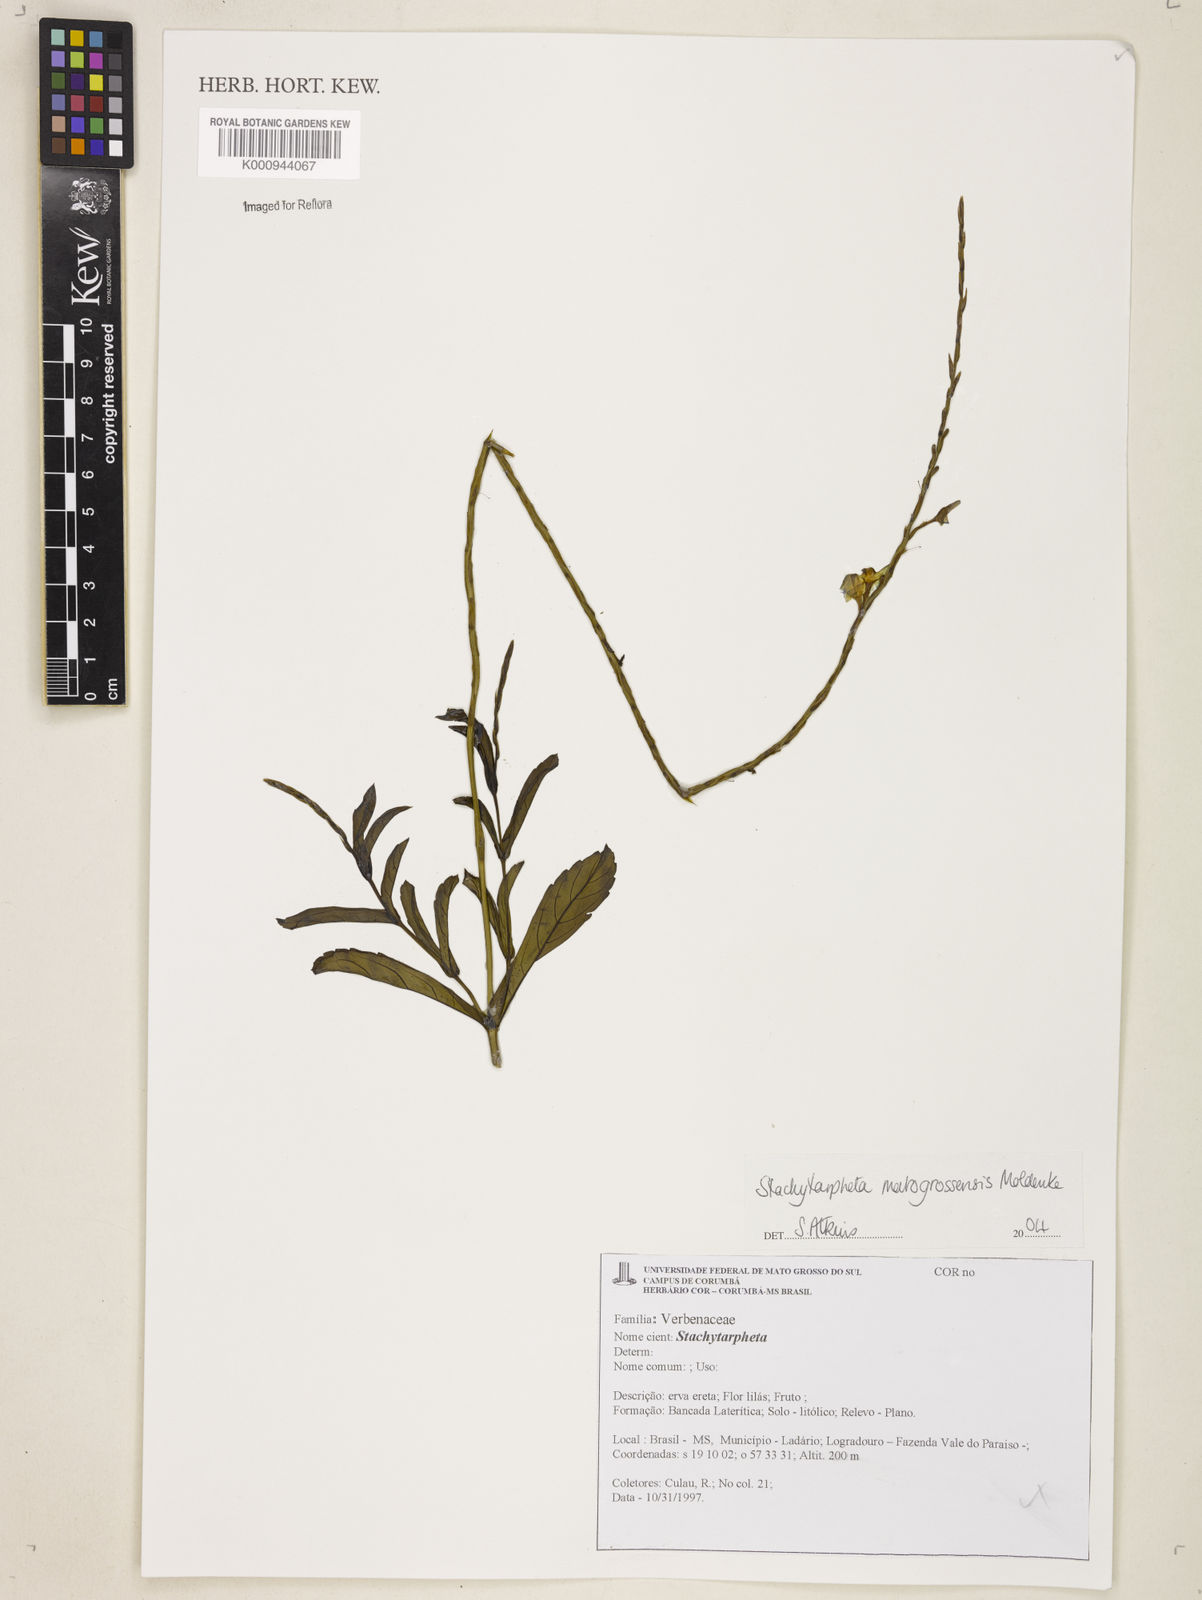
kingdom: Plantae
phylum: Tracheophyta
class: Magnoliopsida
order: Lamiales
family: Verbenaceae
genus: Stachytarpheta
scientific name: Stachytarpheta matogrossensis
